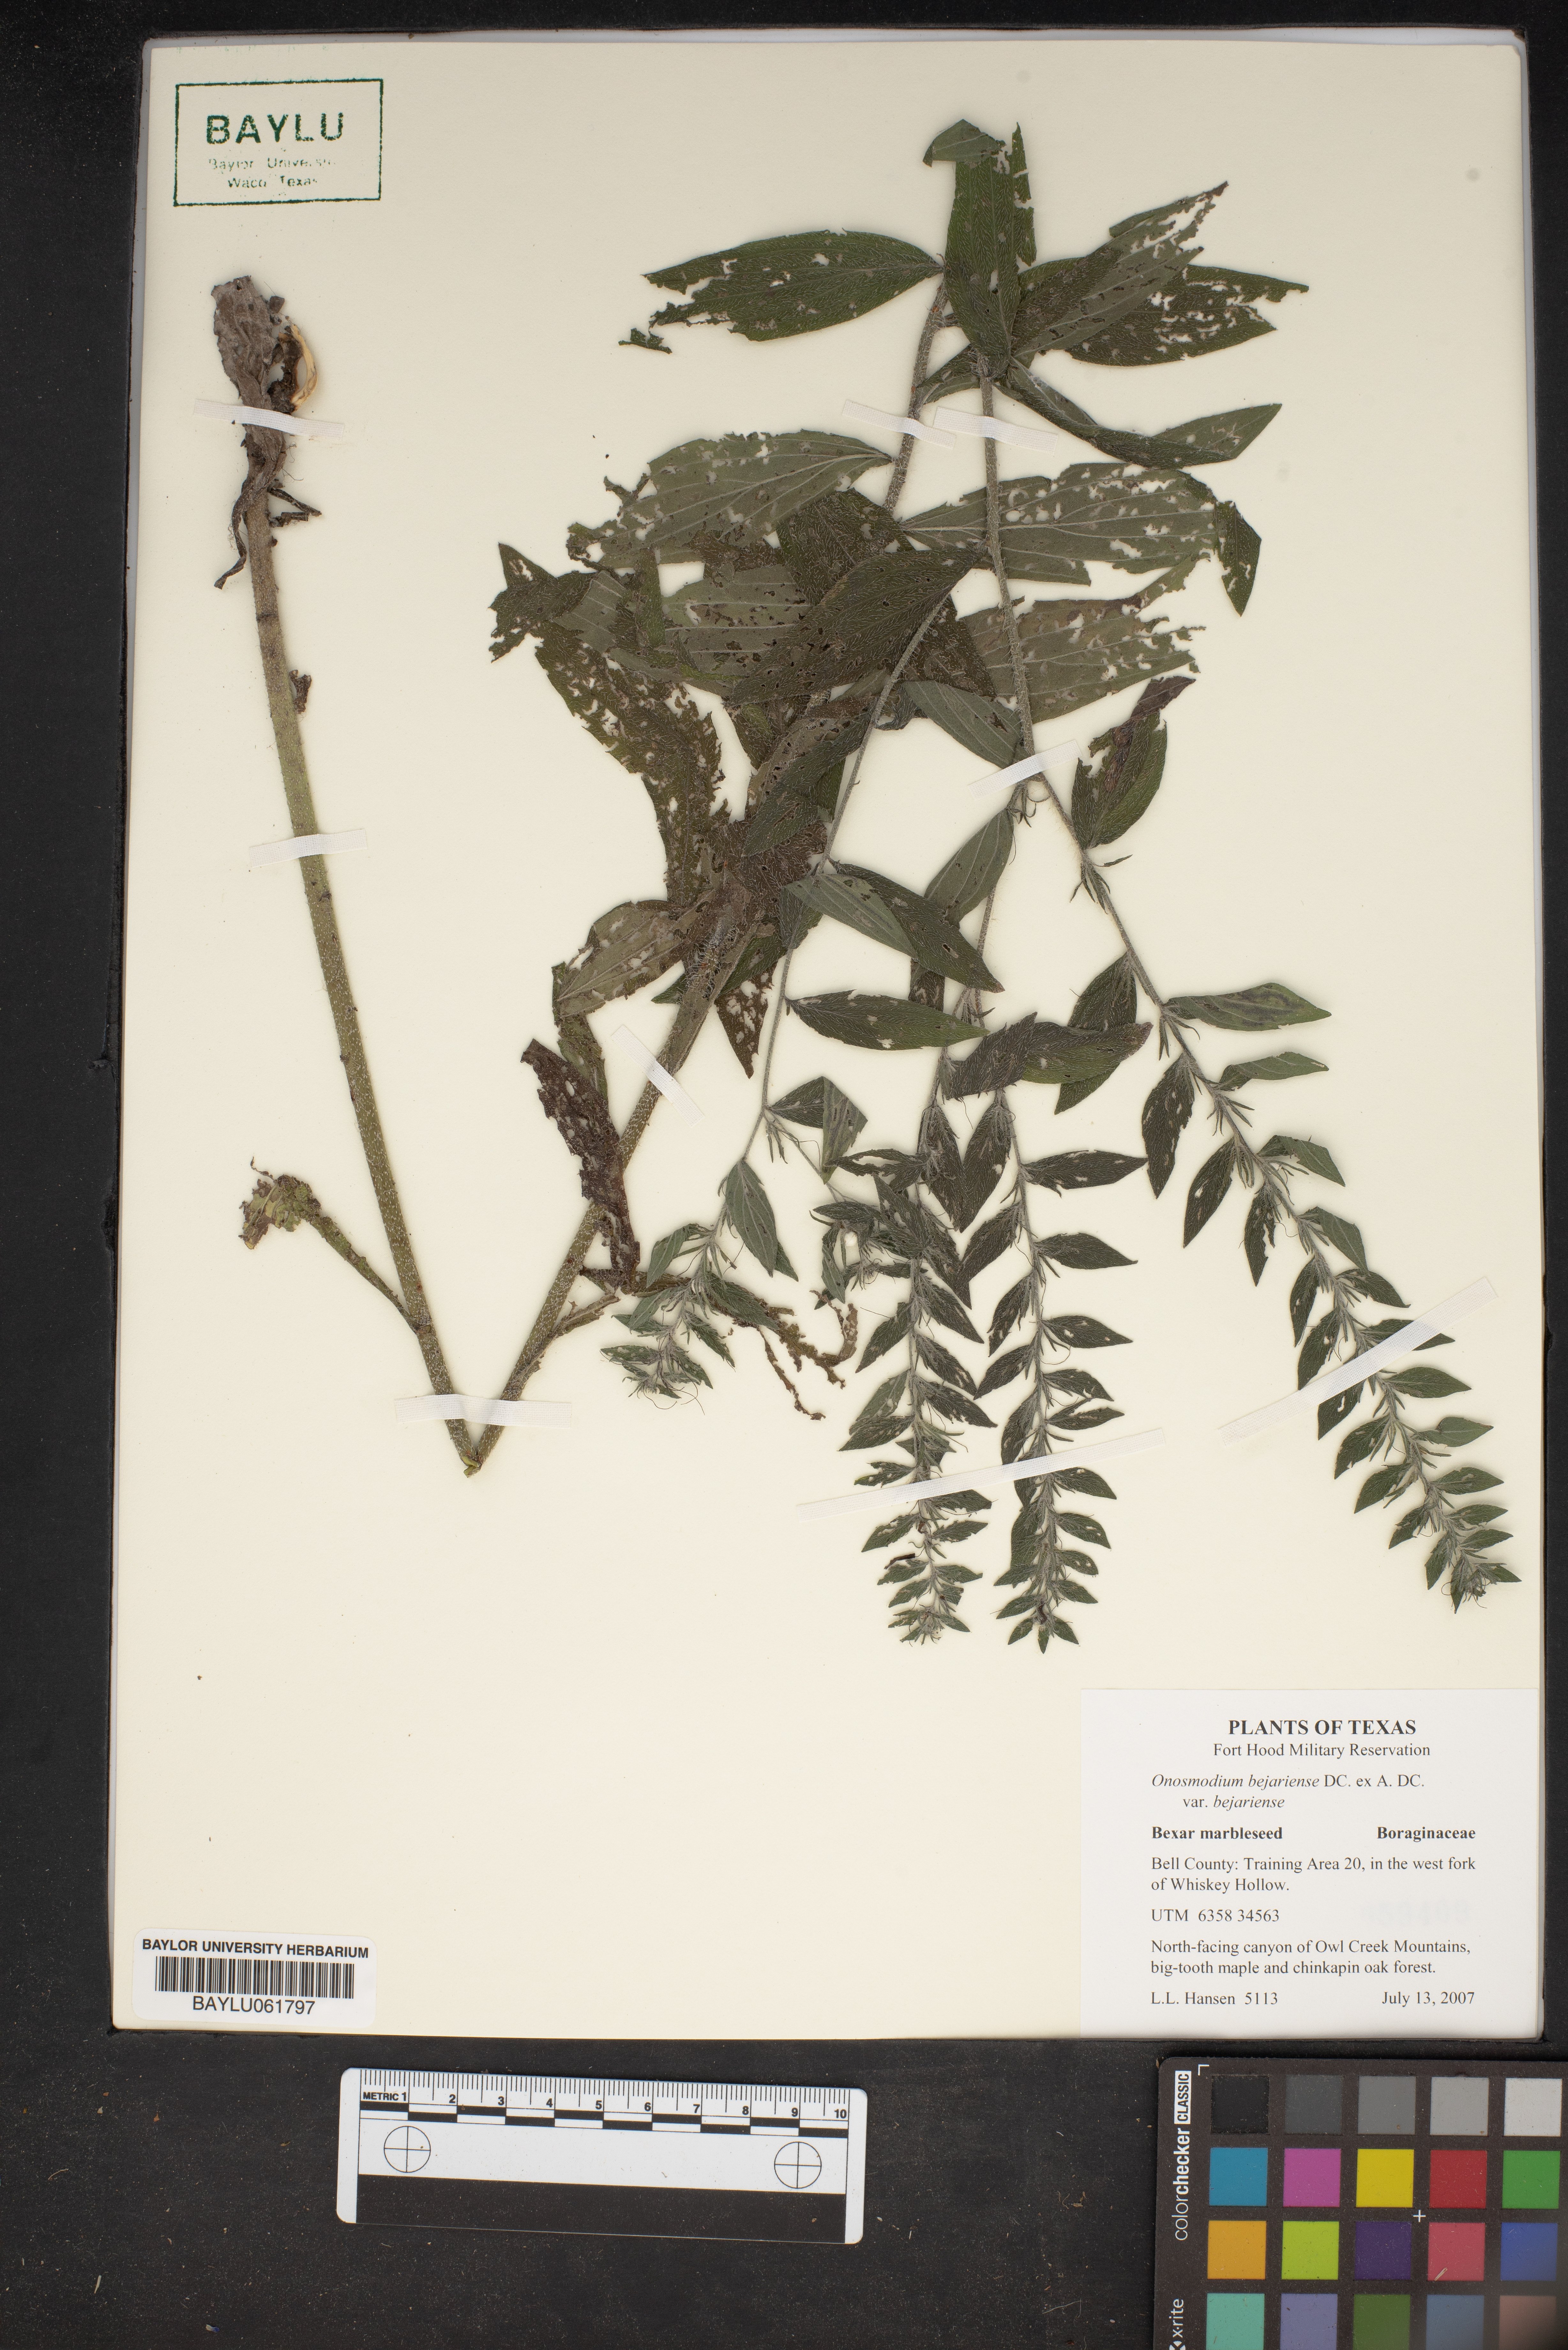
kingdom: Plantae
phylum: Tracheophyta
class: Magnoliopsida
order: Boraginales
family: Boraginaceae
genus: Lithospermum
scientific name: Lithospermum molle
